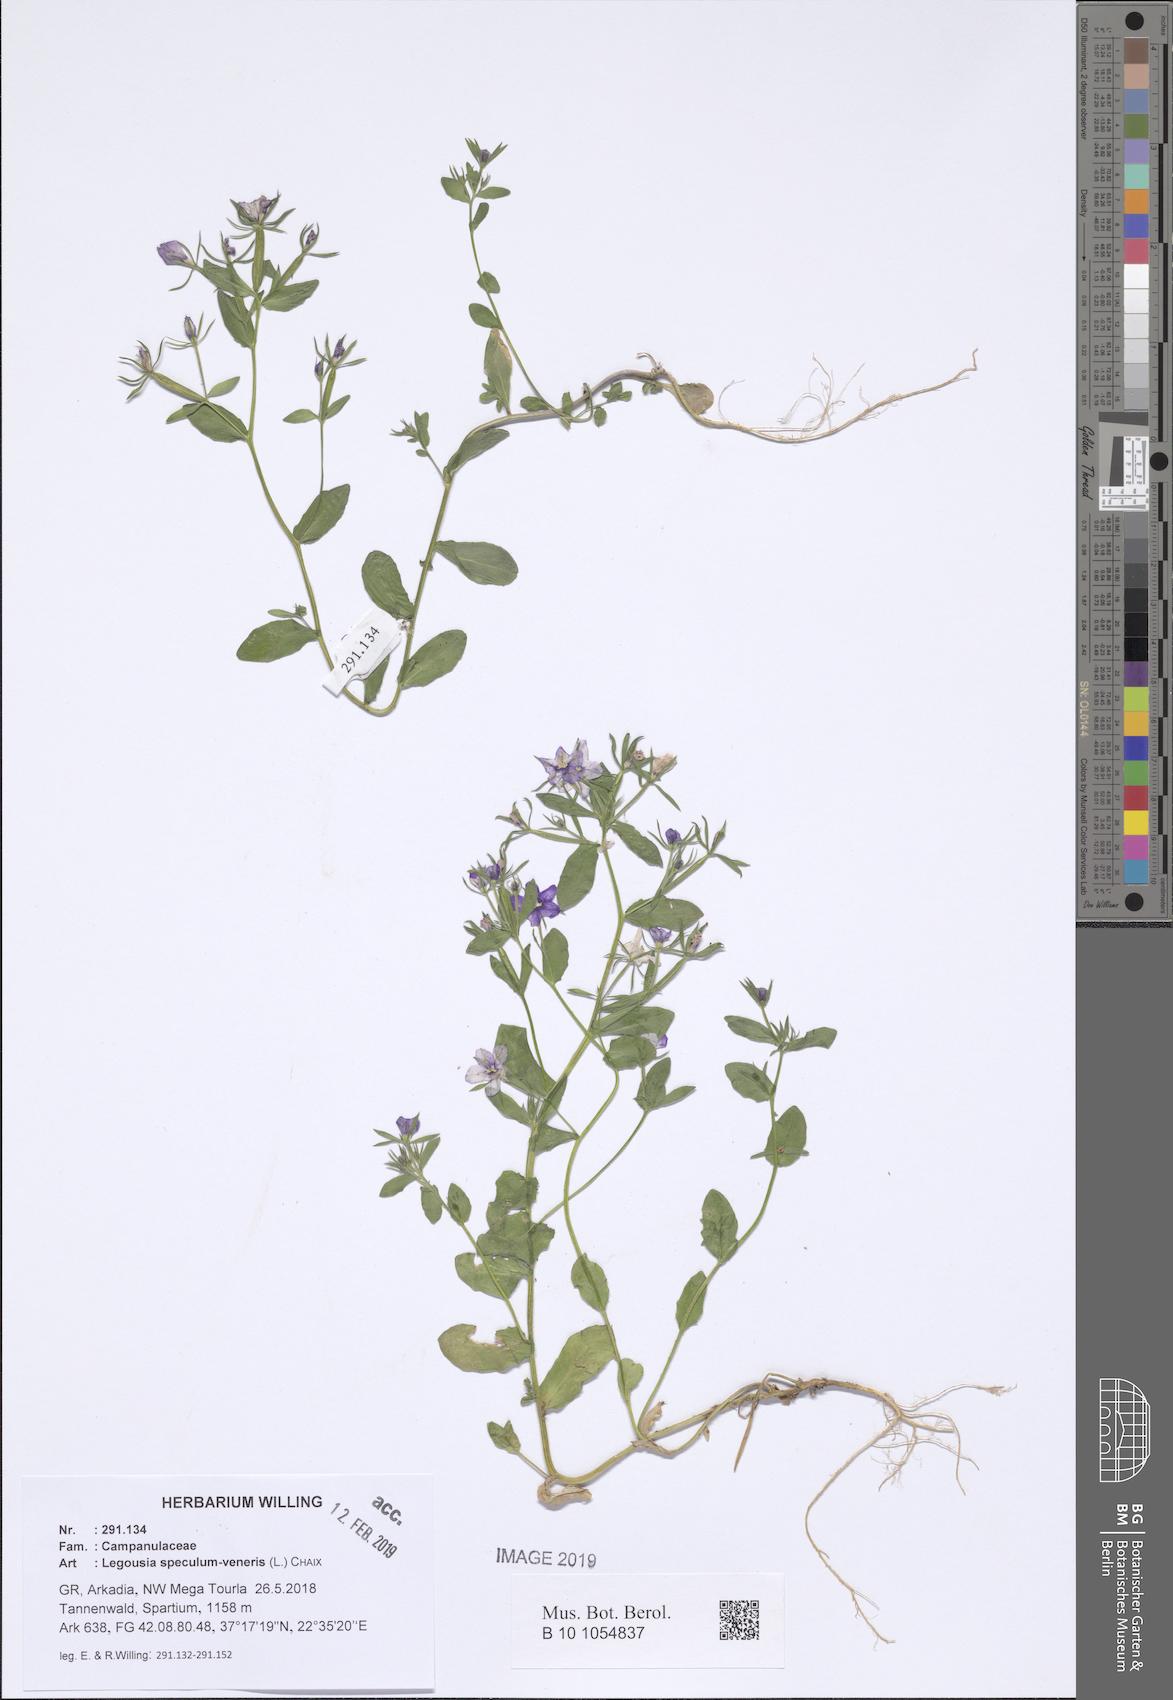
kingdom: Plantae
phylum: Tracheophyta
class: Magnoliopsida
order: Asterales
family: Campanulaceae
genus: Legousia
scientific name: Legousia speculum-veneris
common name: Large venus's-looking-glass
